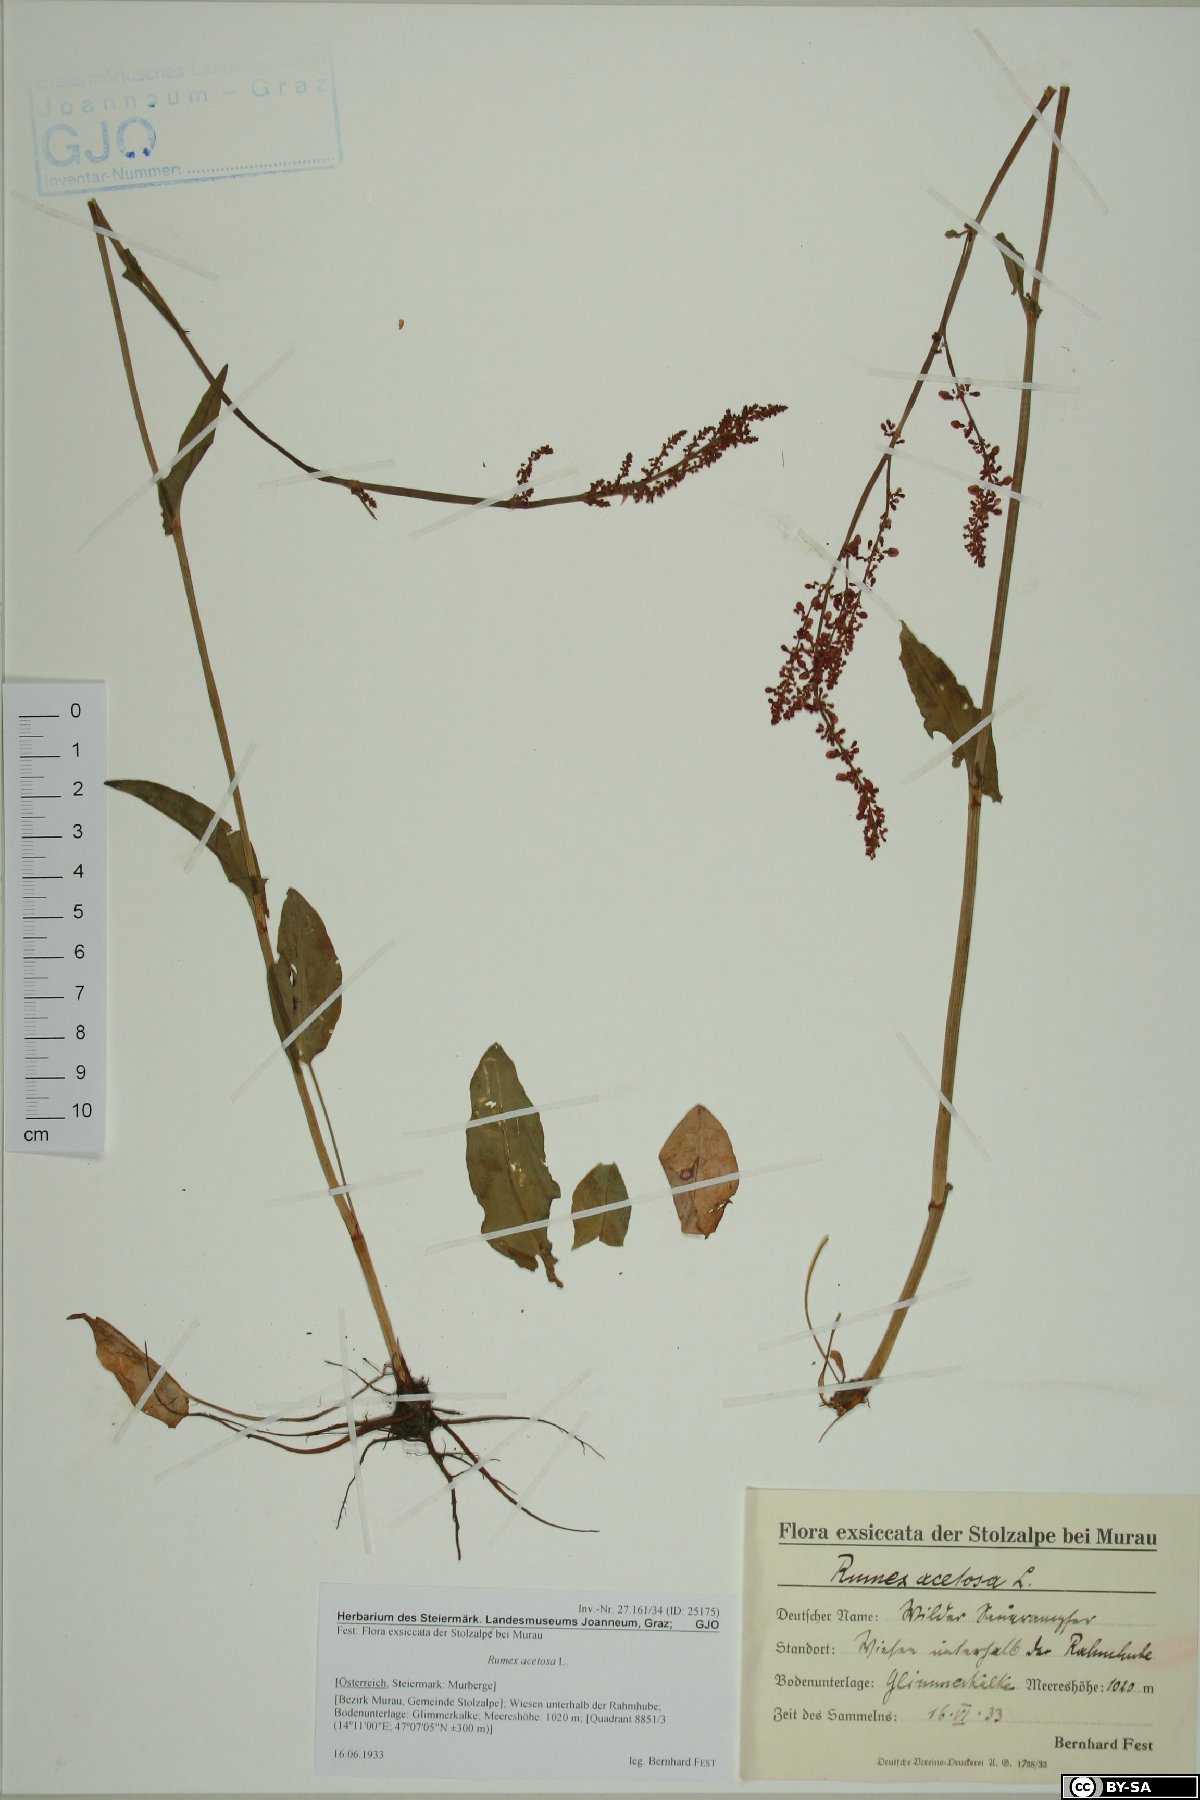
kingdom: Plantae
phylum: Tracheophyta
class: Magnoliopsida
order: Caryophyllales
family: Polygonaceae
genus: Rumex
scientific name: Rumex acetosa
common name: Garden sorrel
